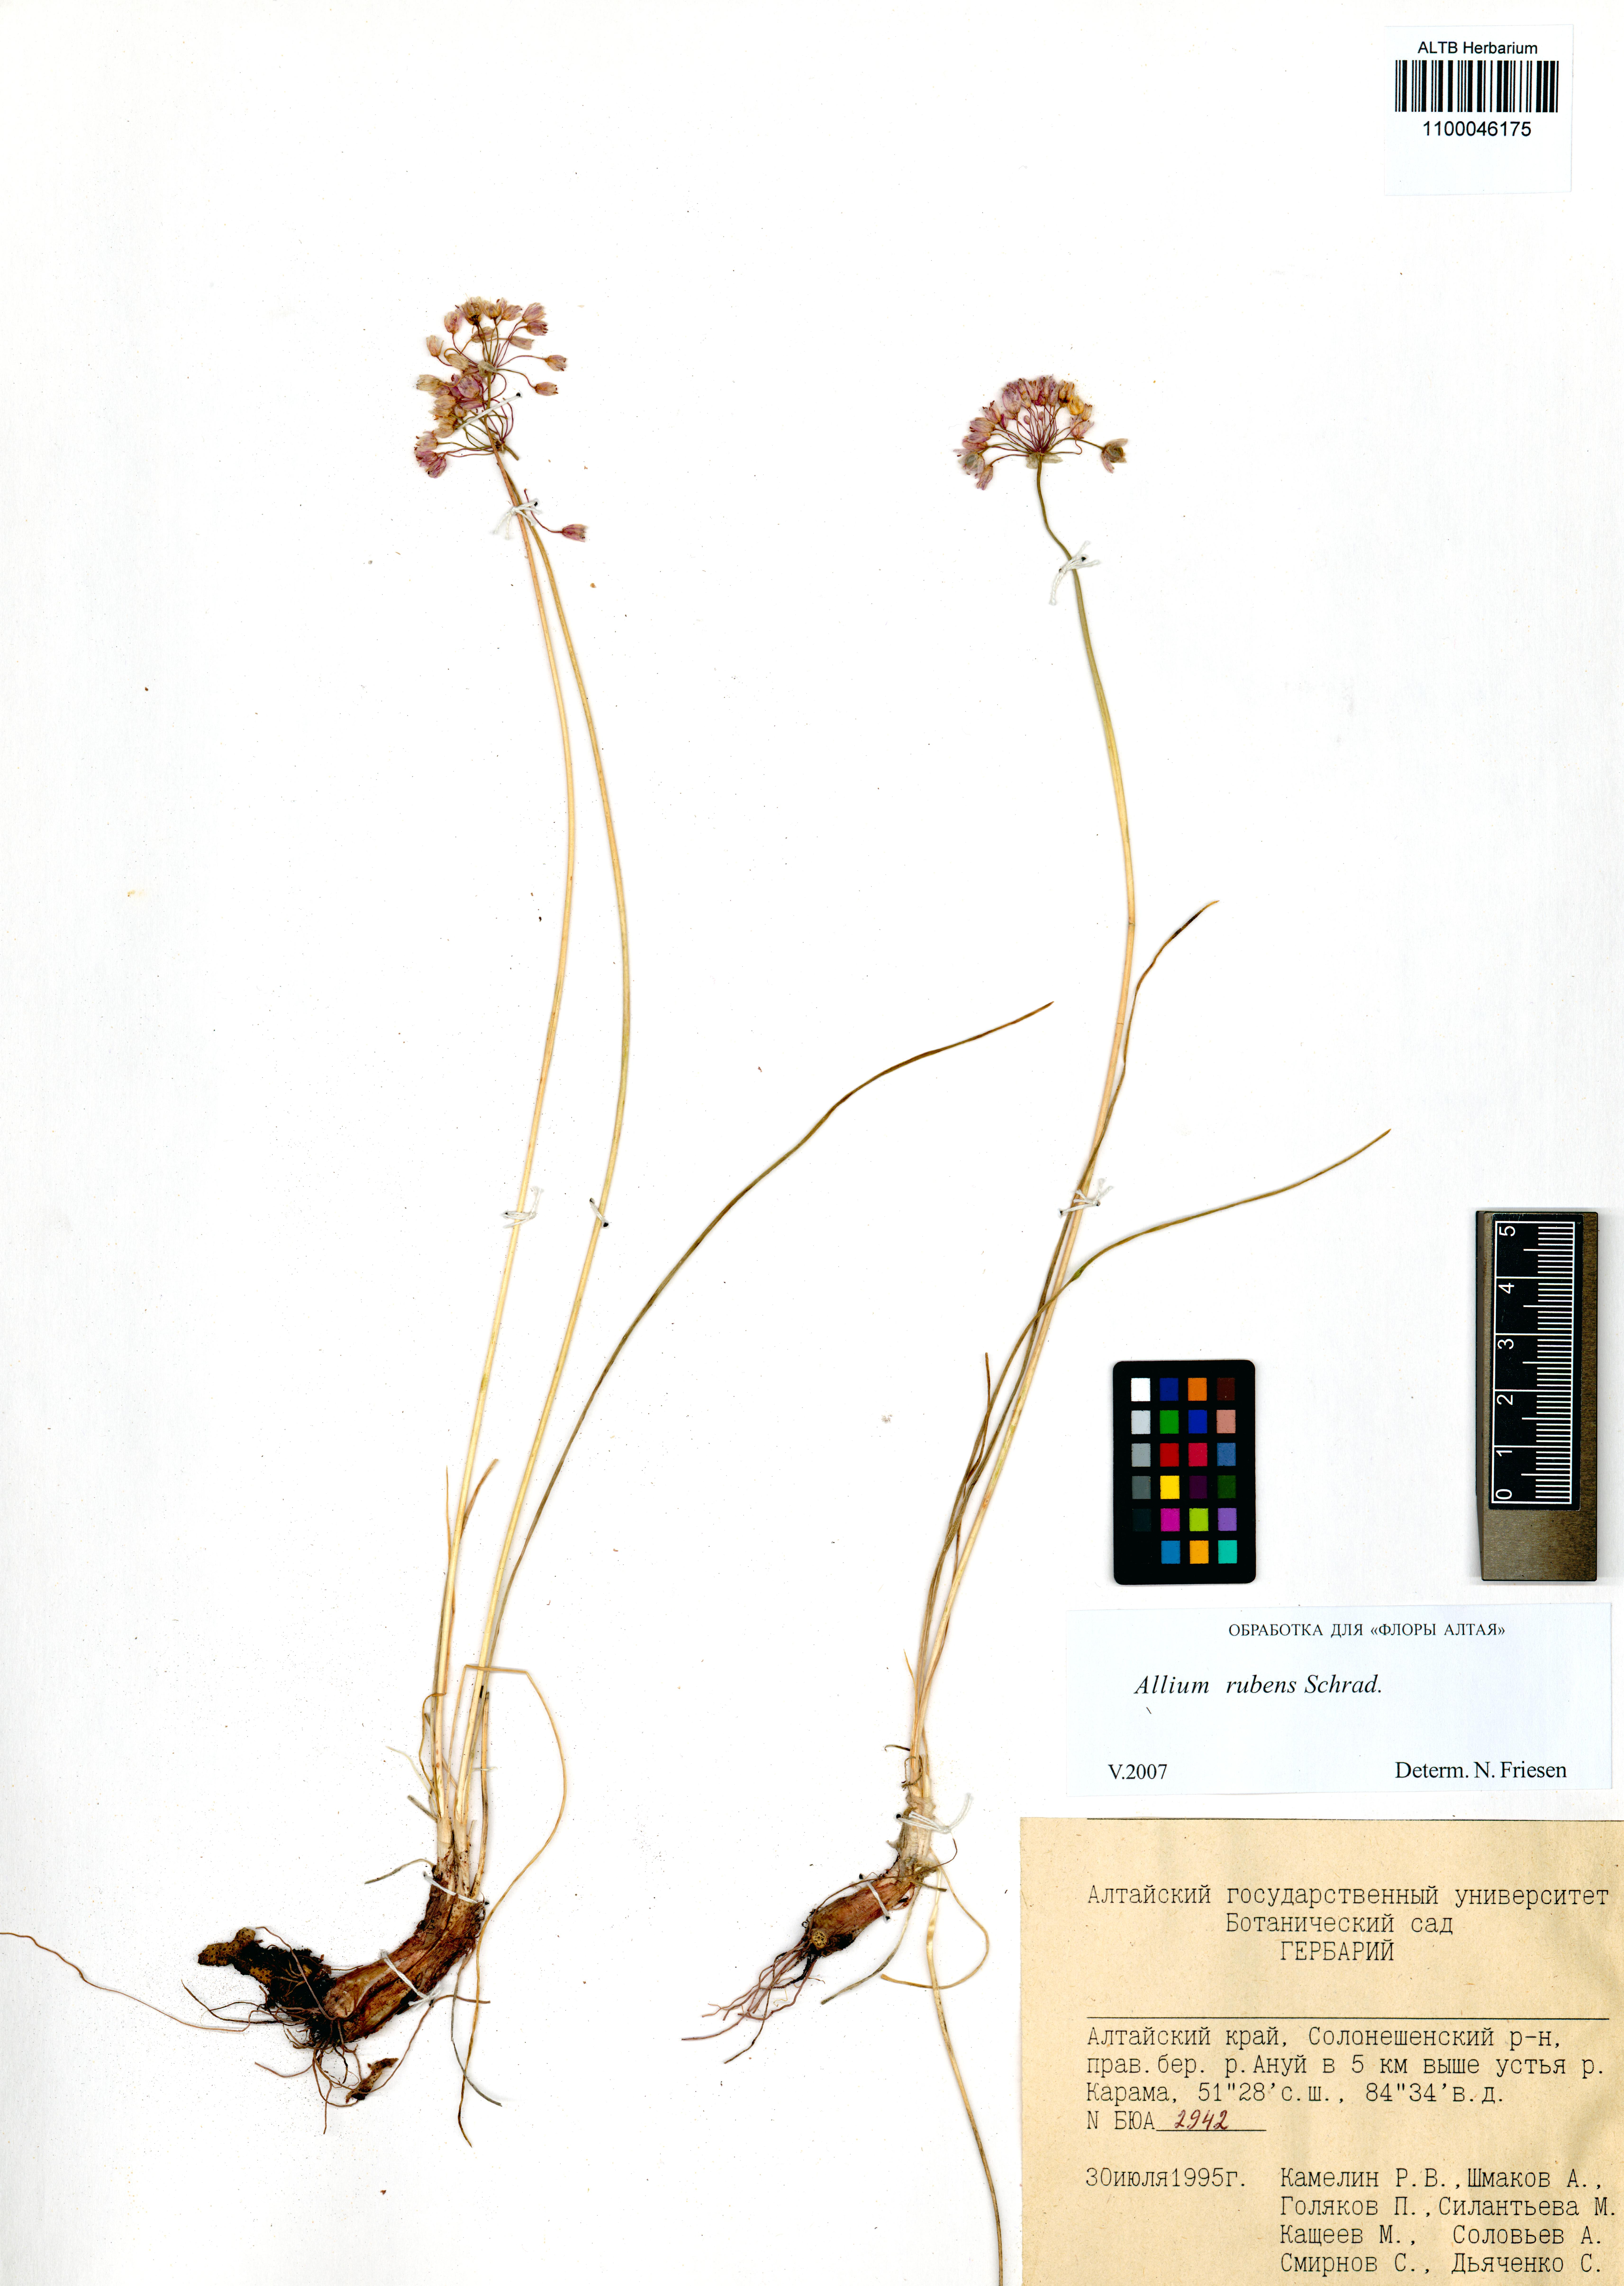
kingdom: Plantae
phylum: Tracheophyta
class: Liliopsida
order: Asparagales
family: Amaryllidaceae
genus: Allium
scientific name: Allium rubens
